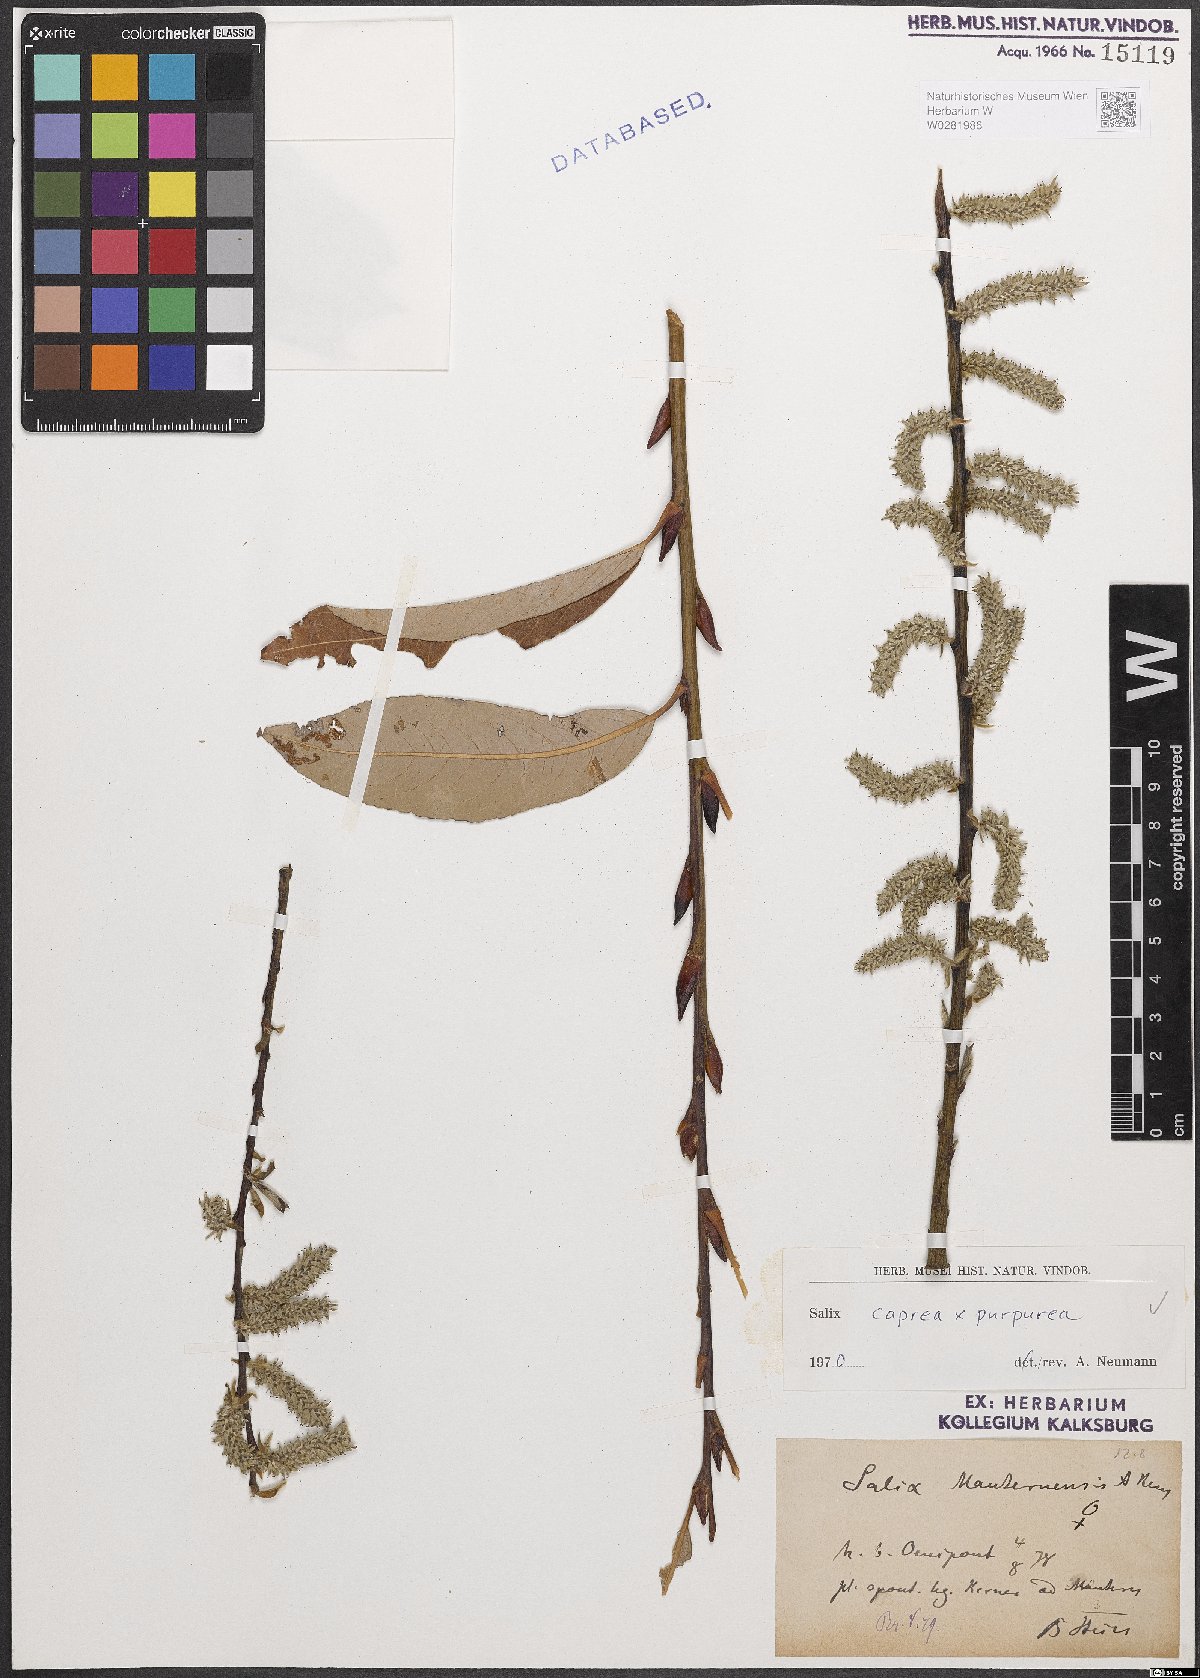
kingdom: Plantae
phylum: Tracheophyta
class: Magnoliopsida
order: Malpighiales
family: Salicaceae
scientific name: Salicaceae
